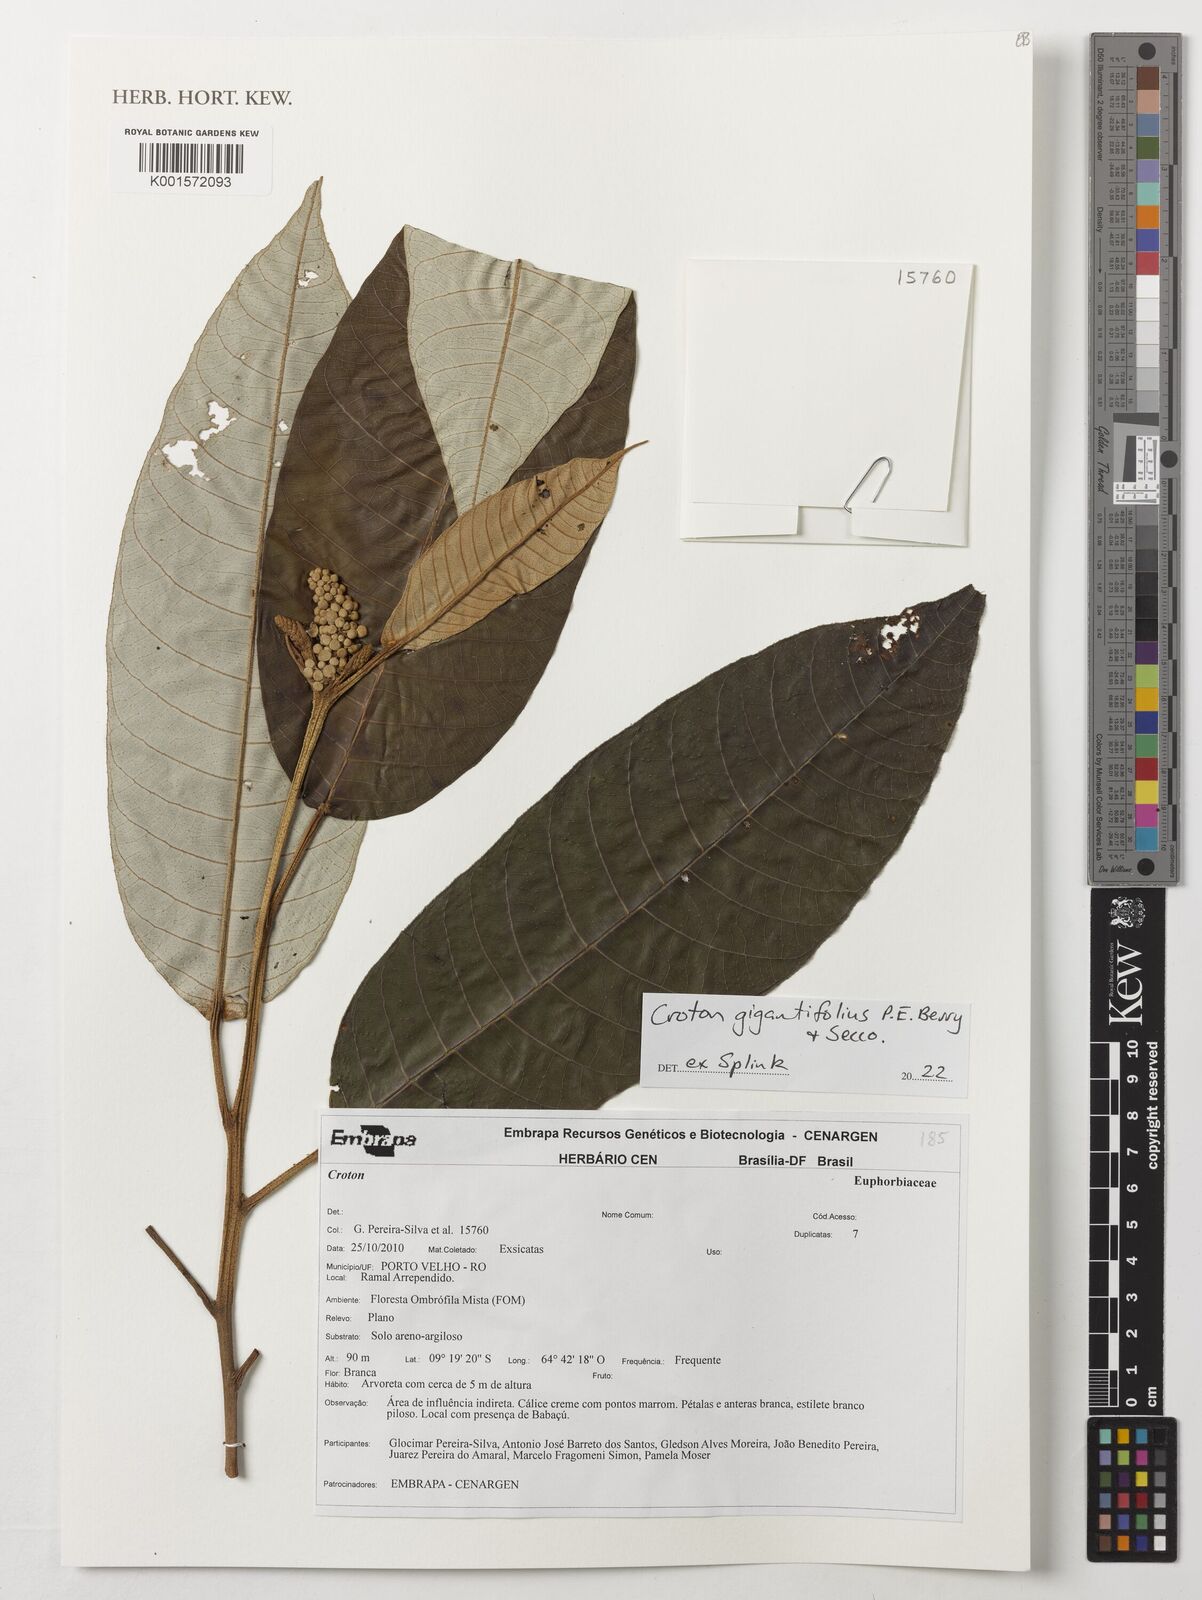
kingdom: Plantae
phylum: Tracheophyta
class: Magnoliopsida
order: Malpighiales
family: Euphorbiaceae
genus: Croton
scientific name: Croton gigantifolius
